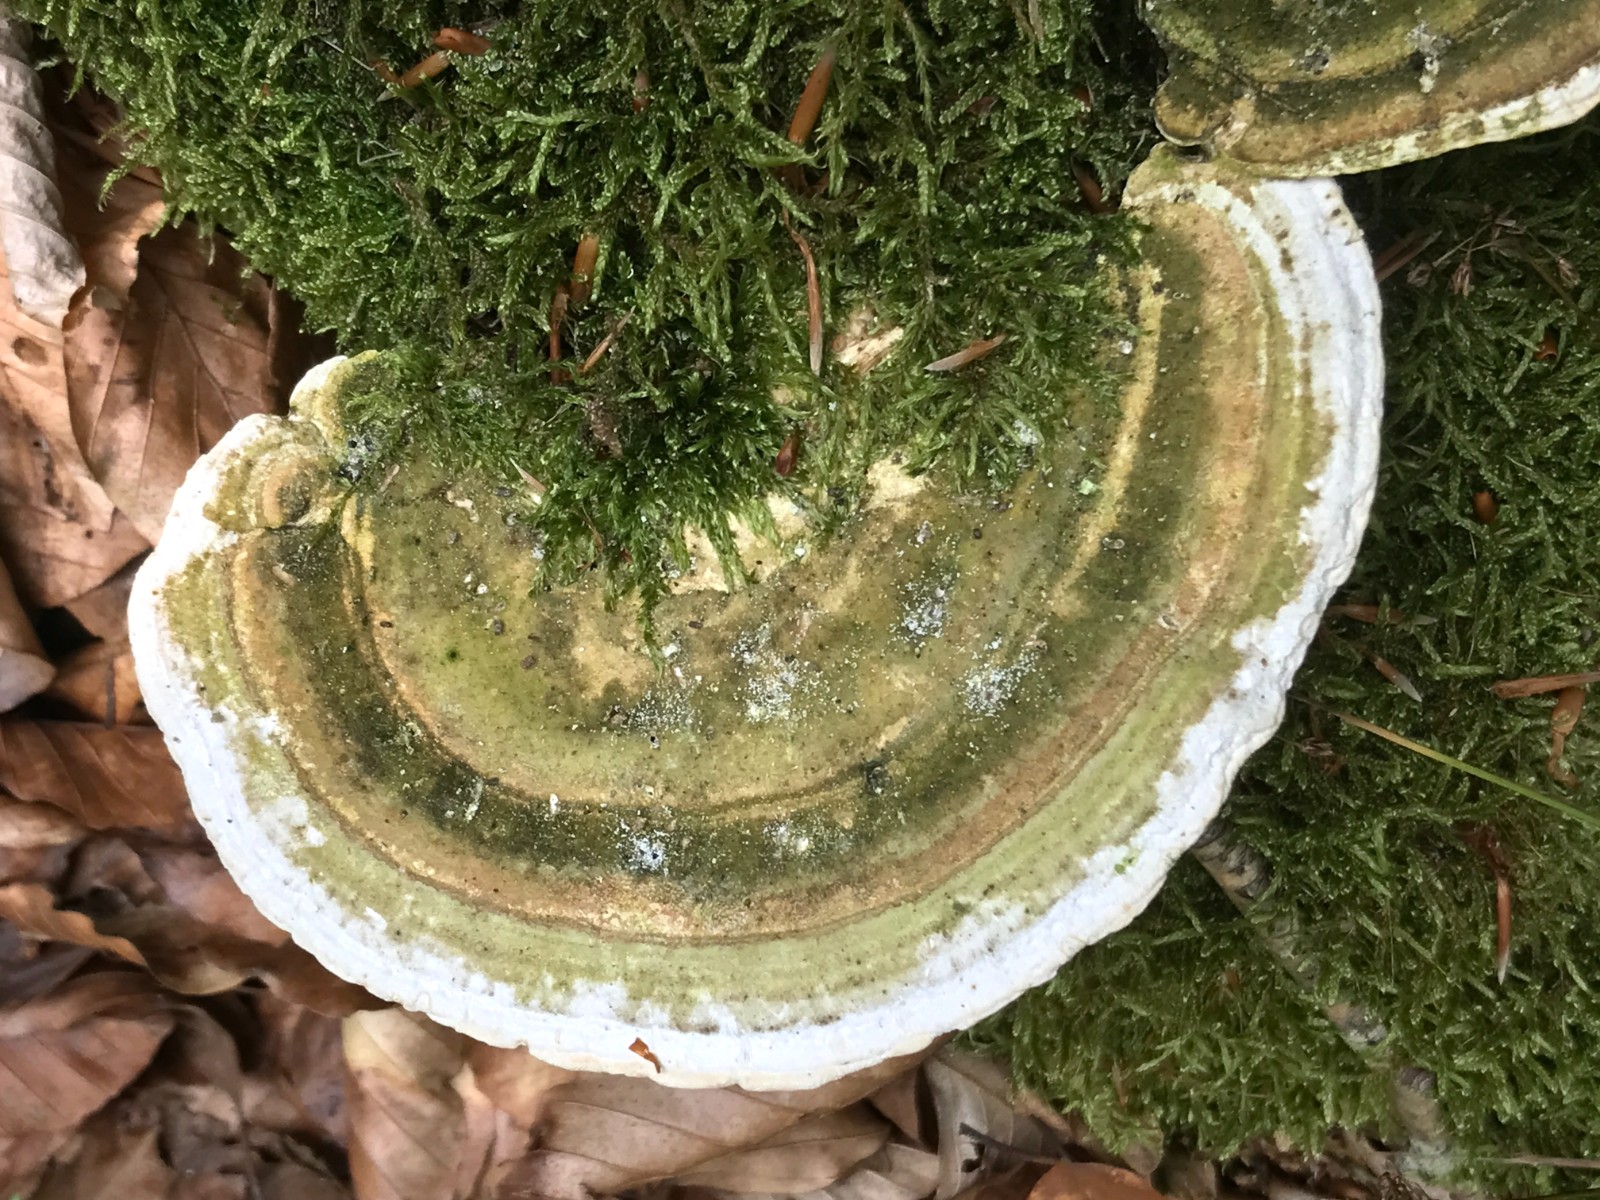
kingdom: Fungi
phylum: Basidiomycota
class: Agaricomycetes
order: Polyporales
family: Polyporaceae
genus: Trametes
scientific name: Trametes hirsuta
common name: håret læderporesvamp
